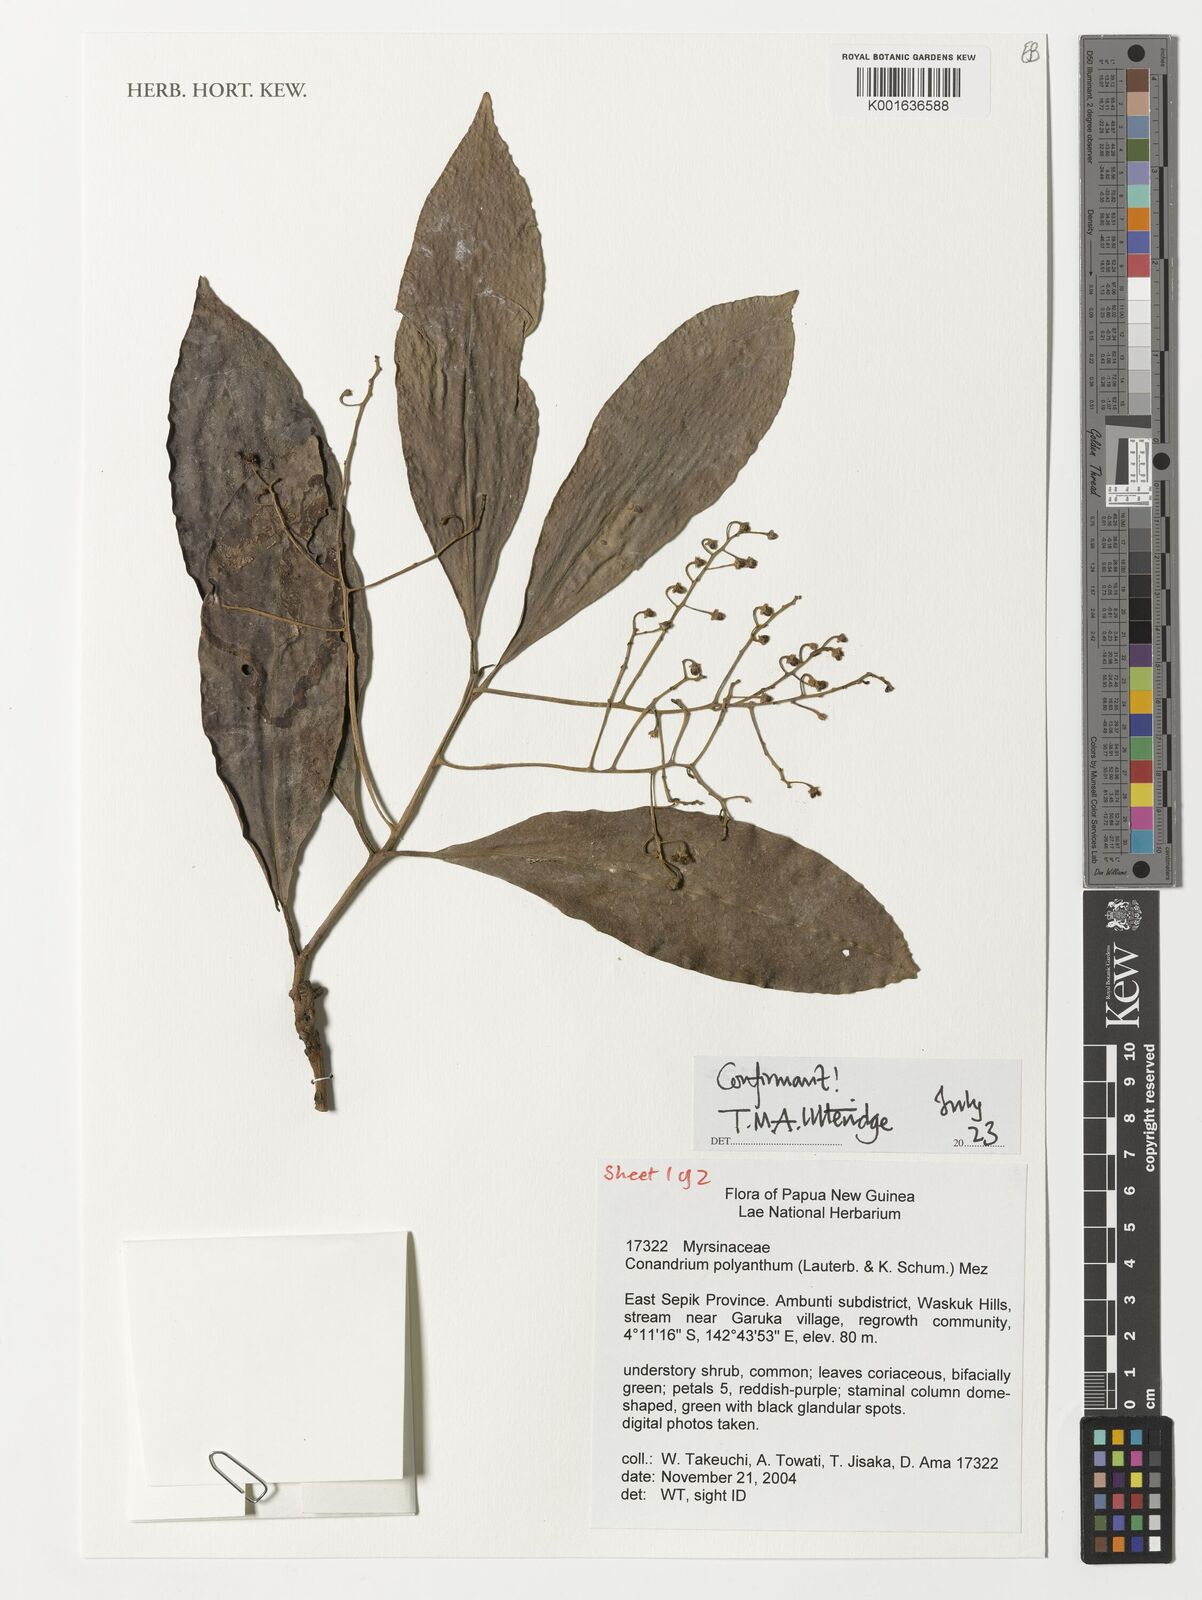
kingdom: Plantae
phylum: Tracheophyta
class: Magnoliopsida
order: Ericales
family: Primulaceae
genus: Conandrium
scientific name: Conandrium polyanthum
